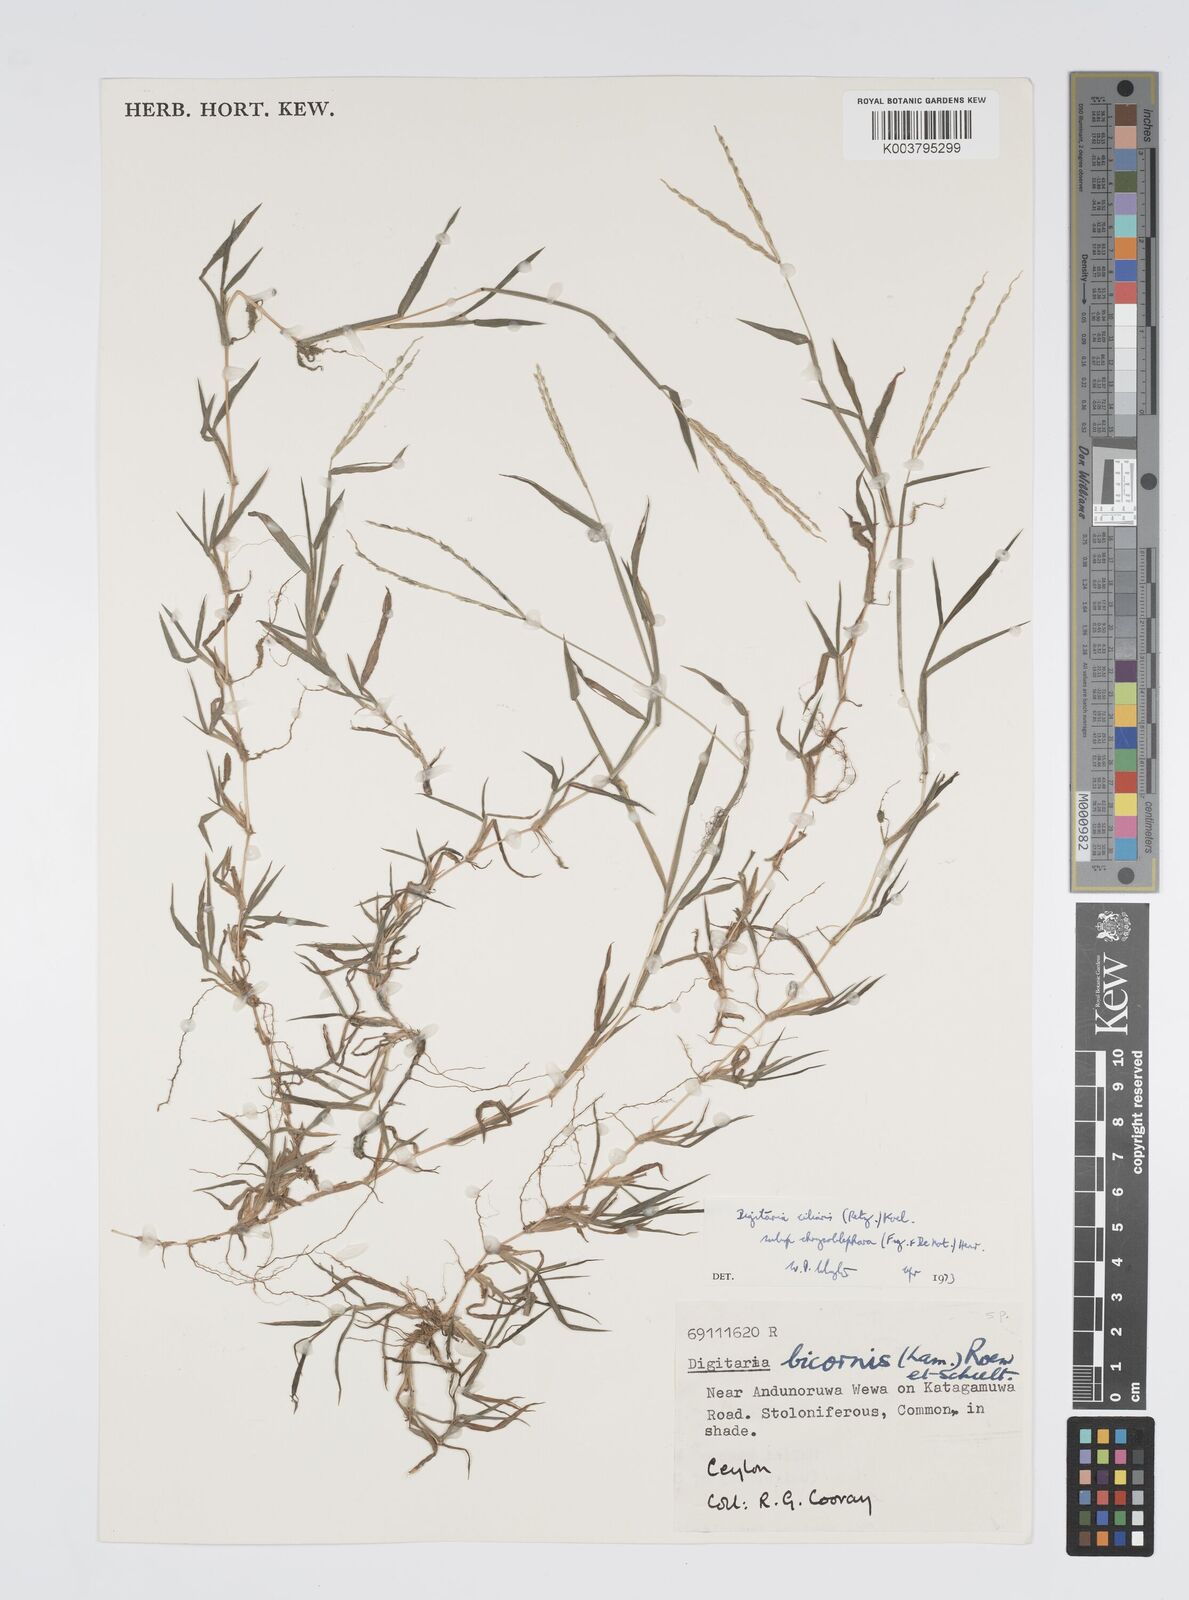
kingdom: Plantae
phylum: Tracheophyta
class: Liliopsida
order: Poales
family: Poaceae
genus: Digitaria
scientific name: Digitaria ciliaris
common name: Tropical finger-grass
